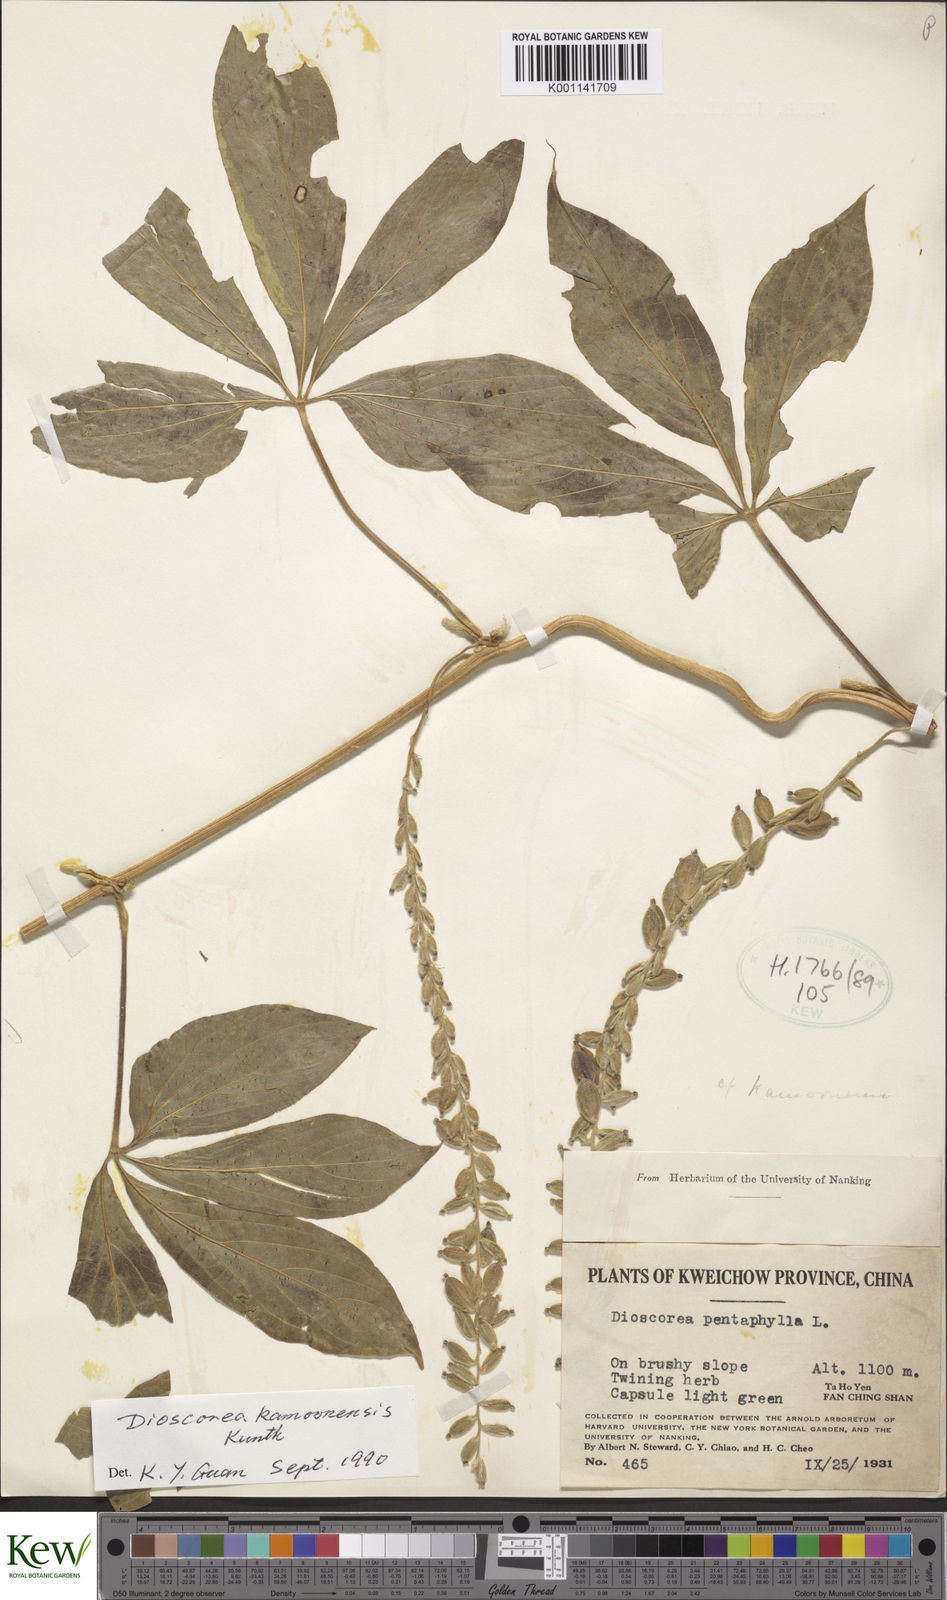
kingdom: Plantae
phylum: Tracheophyta
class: Liliopsida
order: Dioscoreales
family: Dioscoreaceae
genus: Dioscorea
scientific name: Dioscorea kamoonensis
